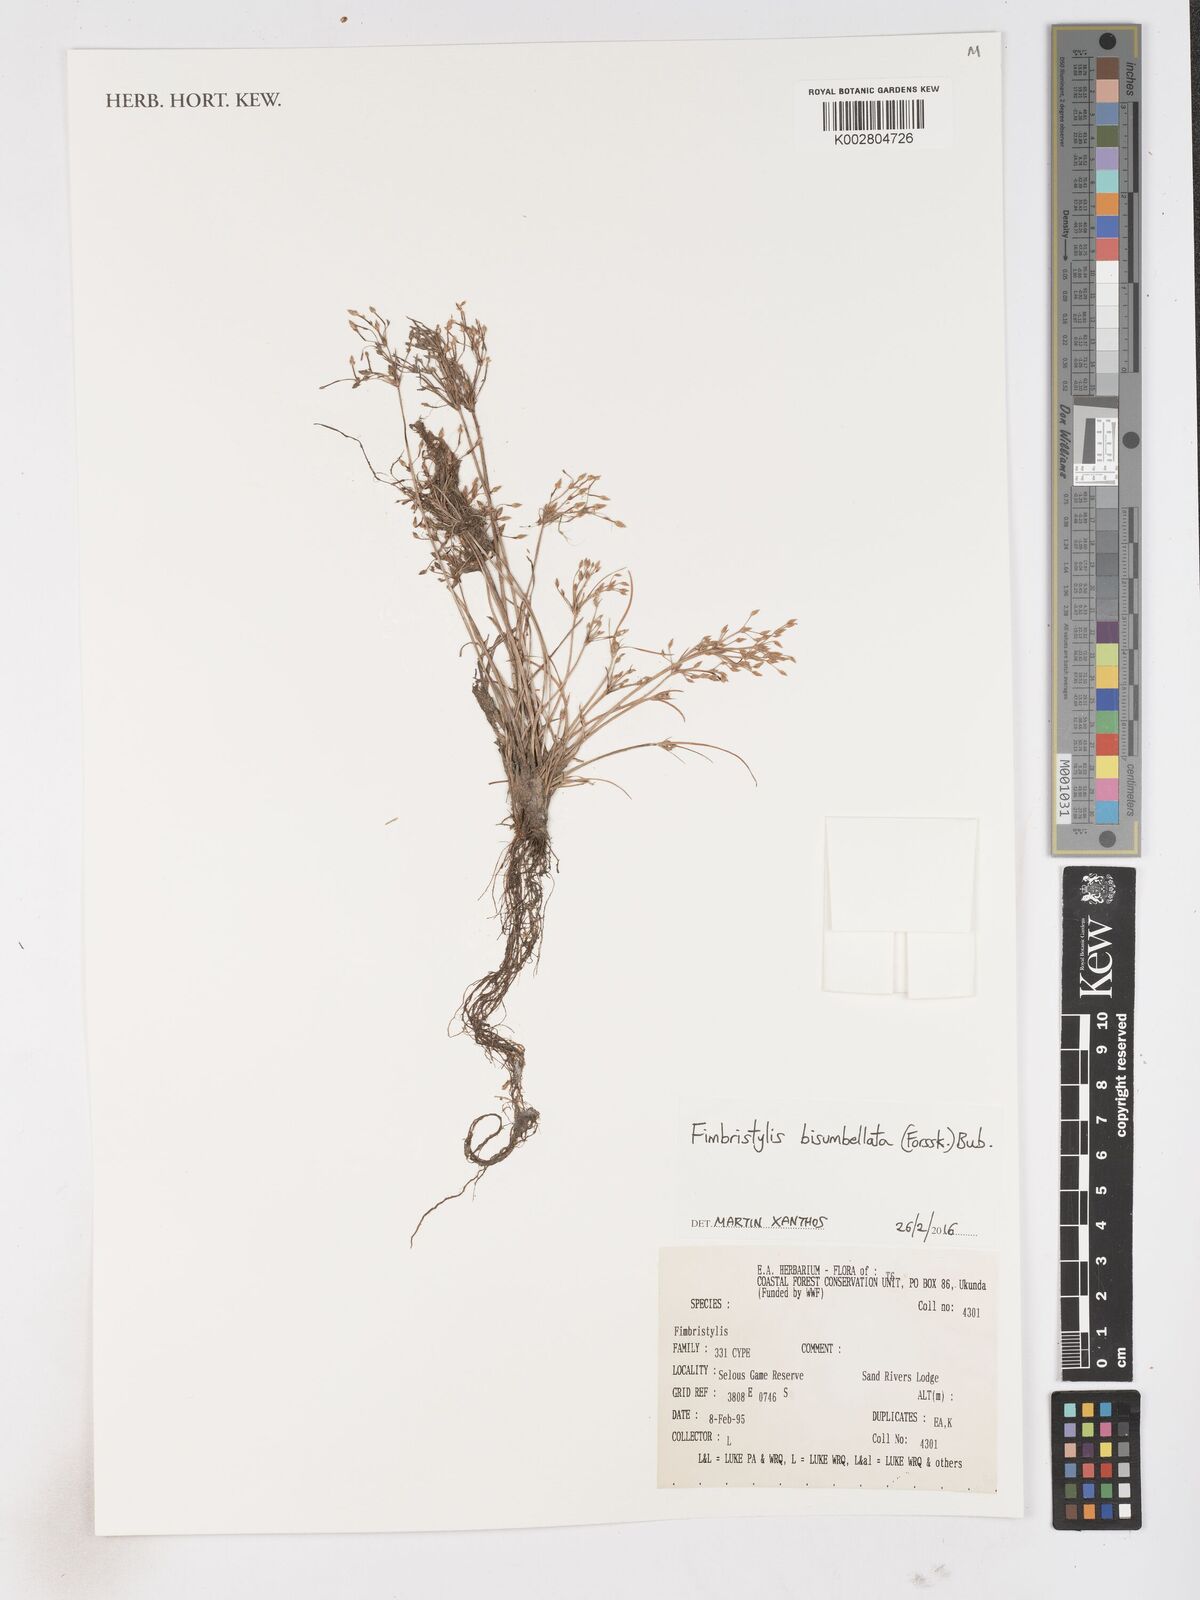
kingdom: Plantae
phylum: Tracheophyta
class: Liliopsida
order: Poales
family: Cyperaceae
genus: Fimbristylis
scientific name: Fimbristylis bisumbellata
